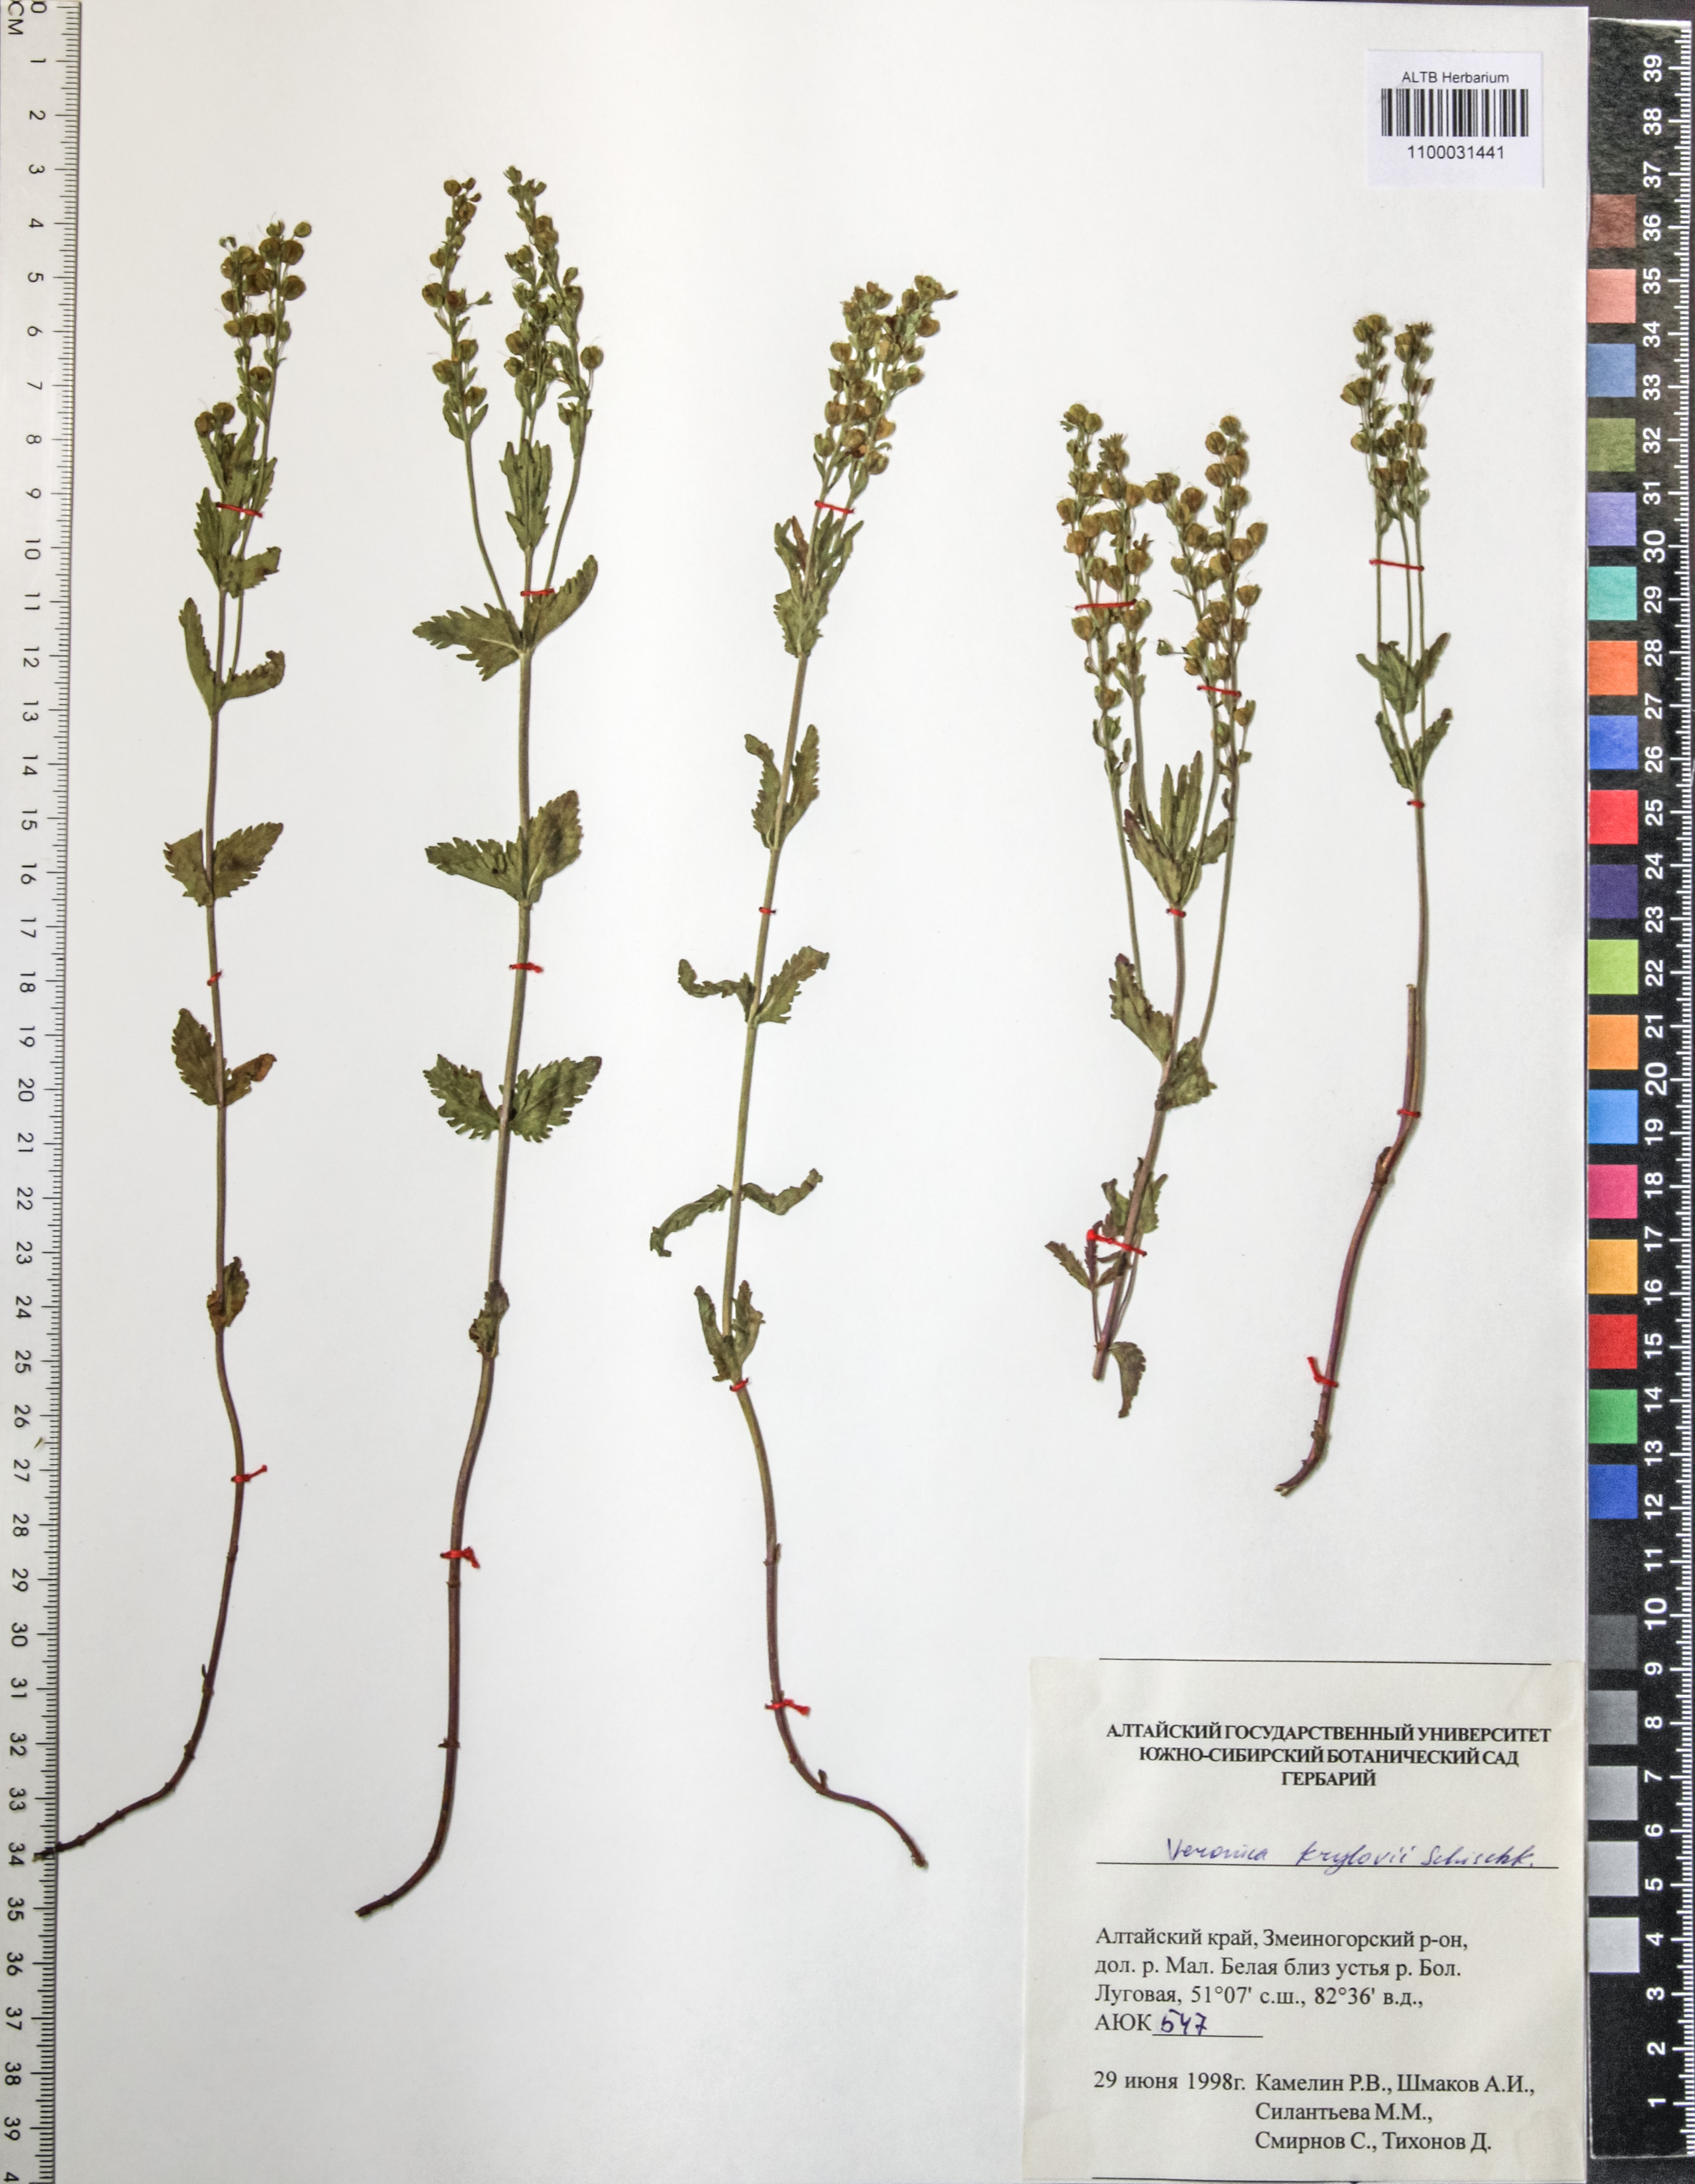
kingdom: Plantae
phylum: Tracheophyta
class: Magnoliopsida
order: Lamiales
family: Plantaginaceae
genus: Veronica
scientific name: Veronica krylovii
